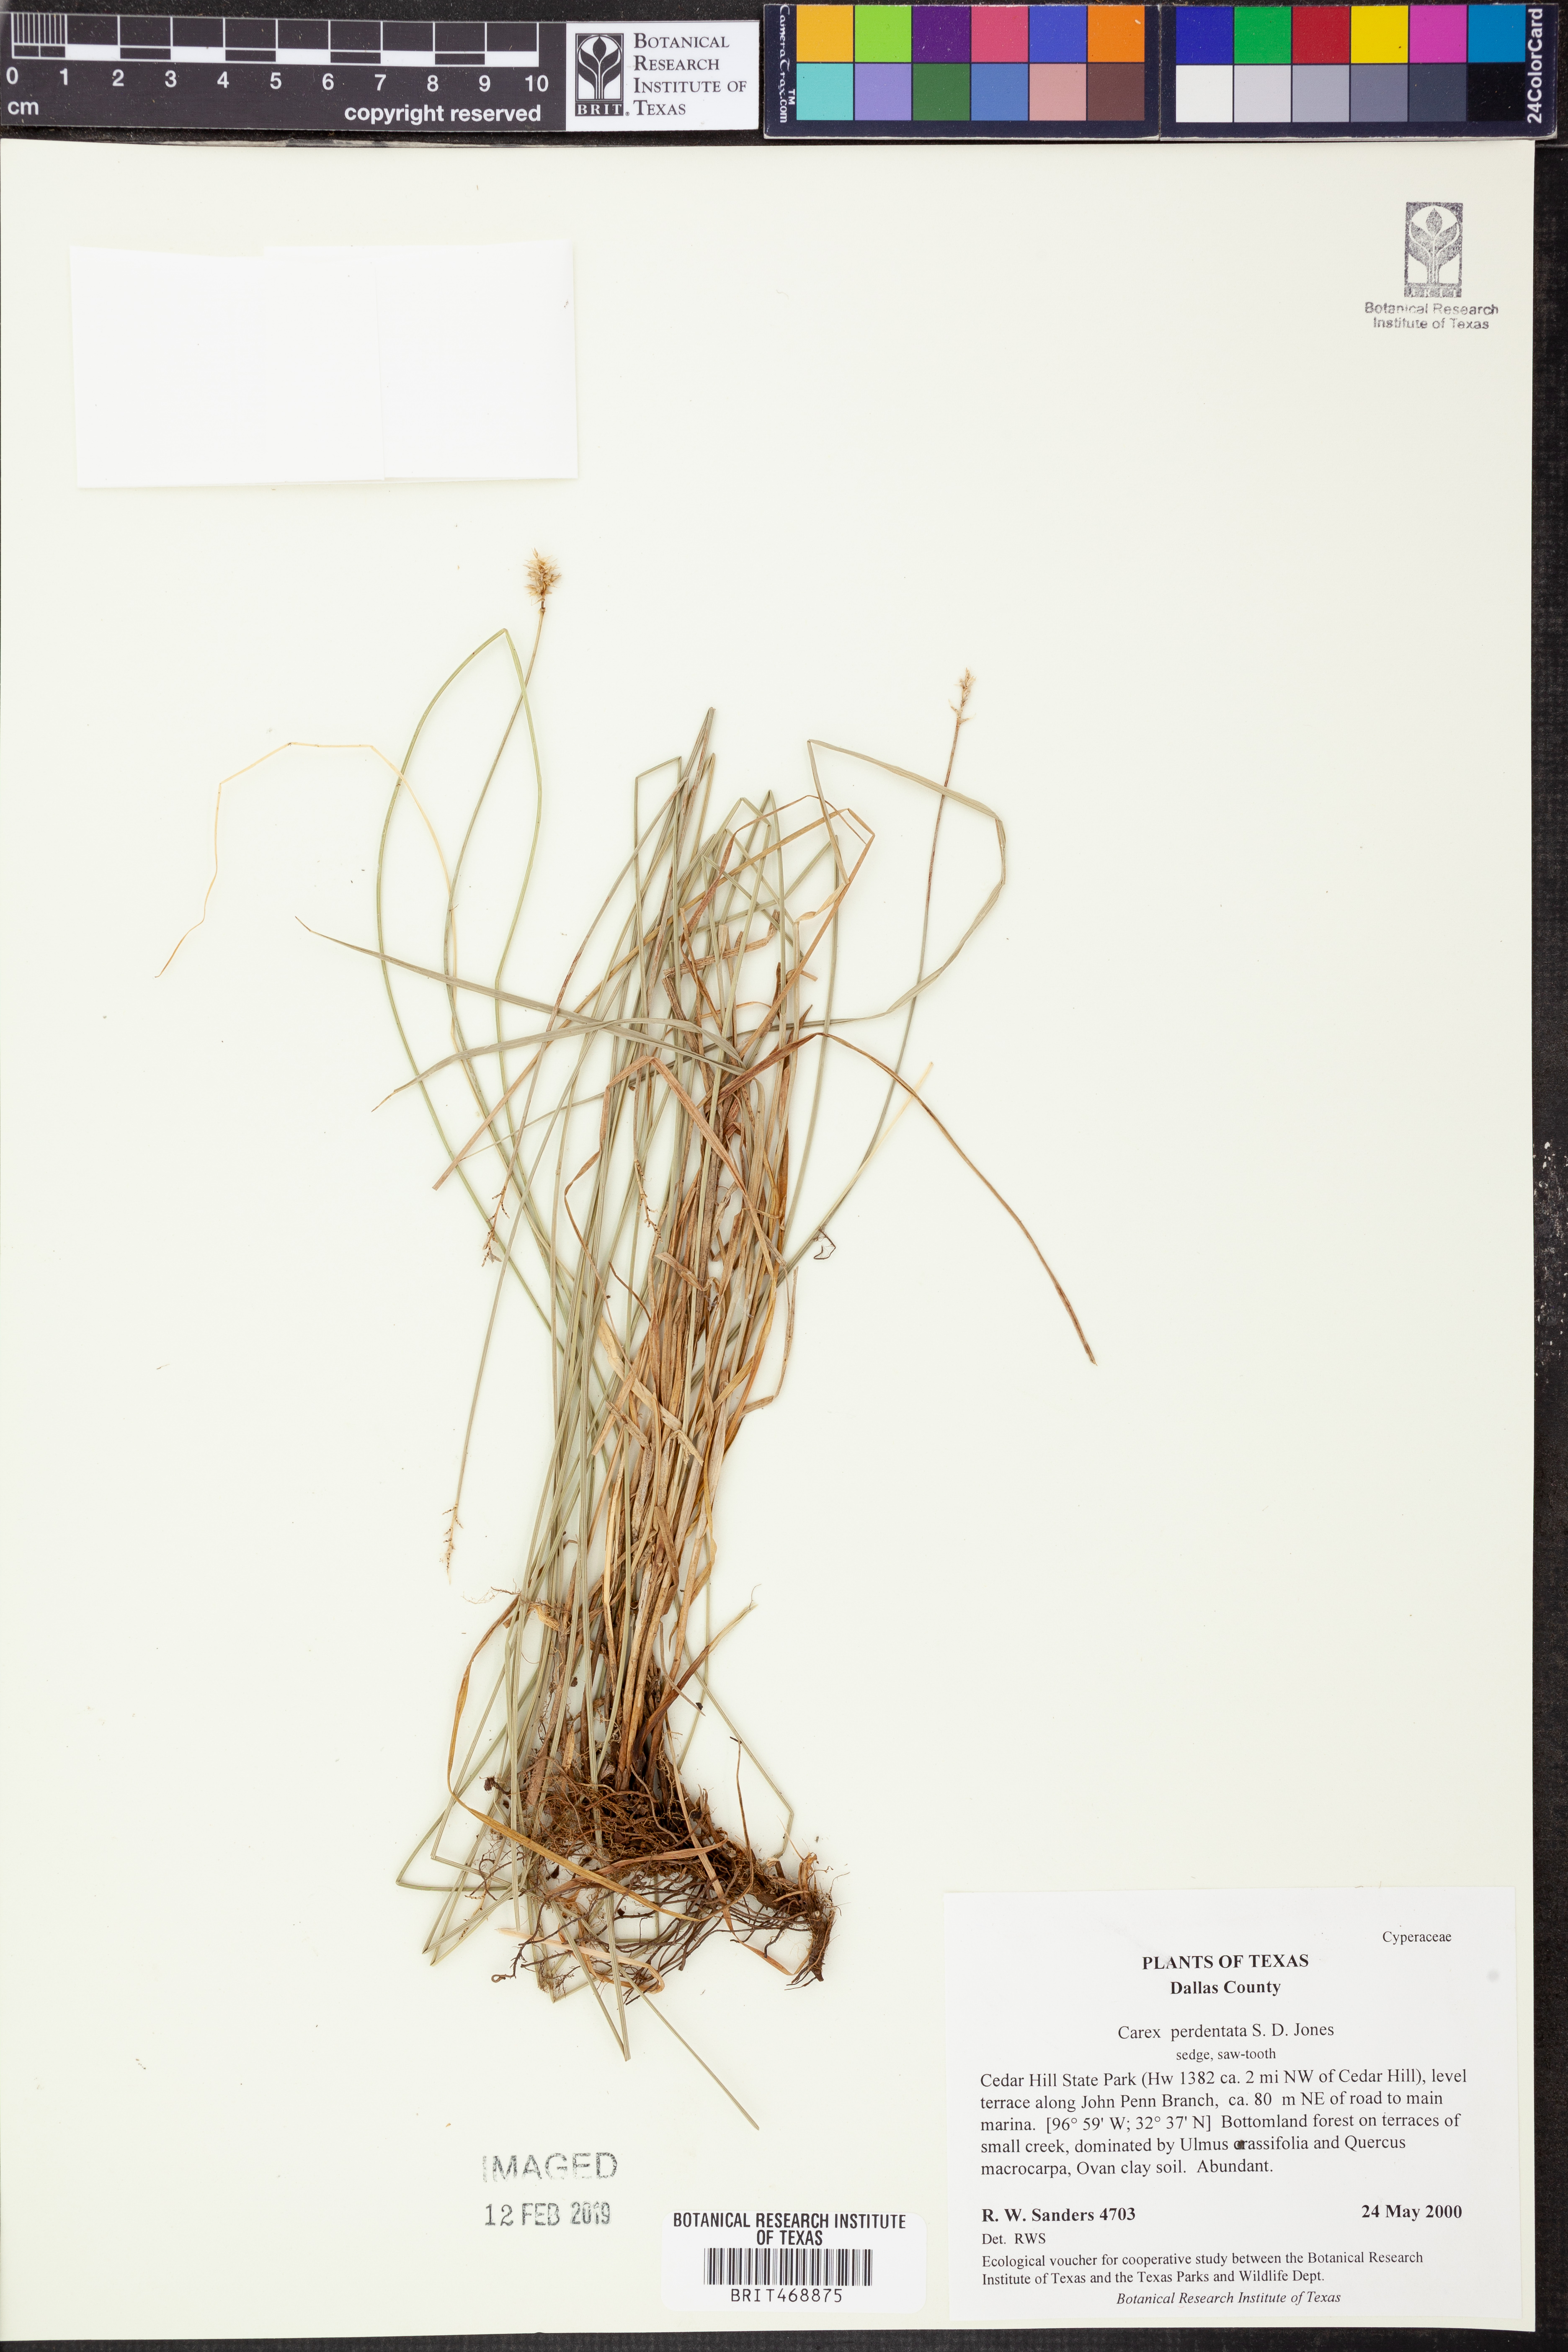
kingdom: Plantae
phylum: Tracheophyta
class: Liliopsida
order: Poales
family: Cyperaceae
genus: Carex
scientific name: Carex perdentata
